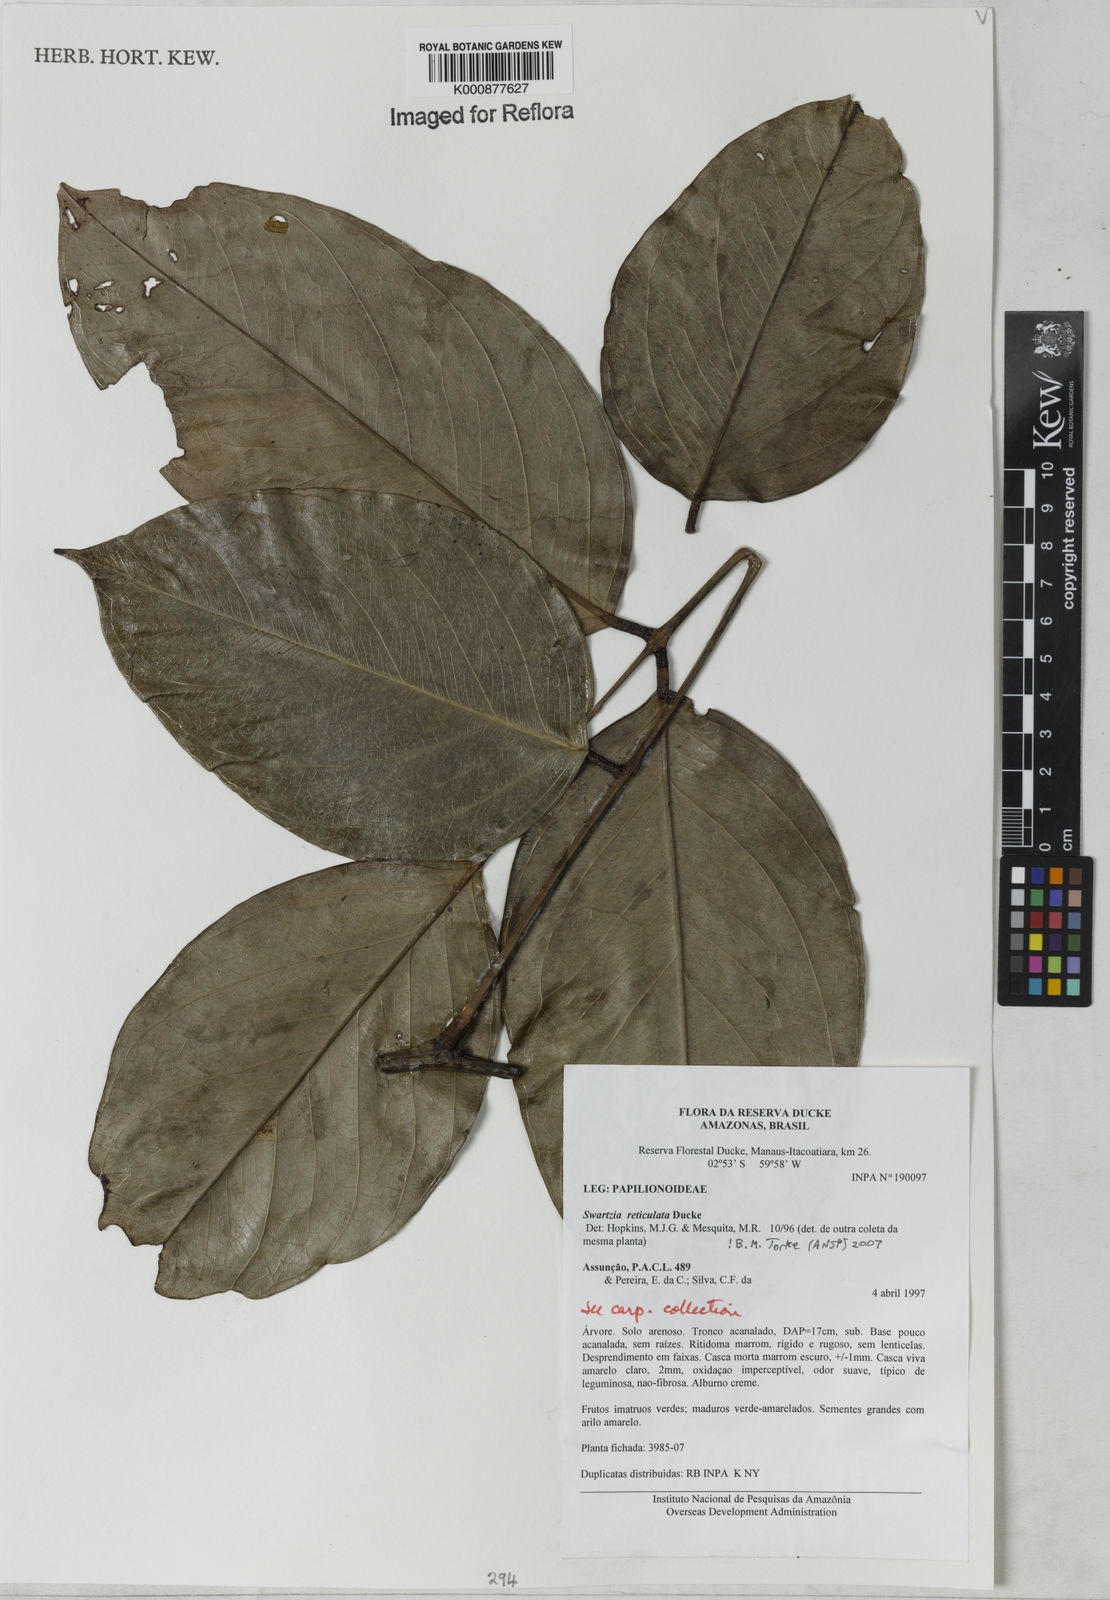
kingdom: Plantae
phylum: Tracheophyta
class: Magnoliopsida
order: Fabales
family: Fabaceae
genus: Swartzia
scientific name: Swartzia reticulata
